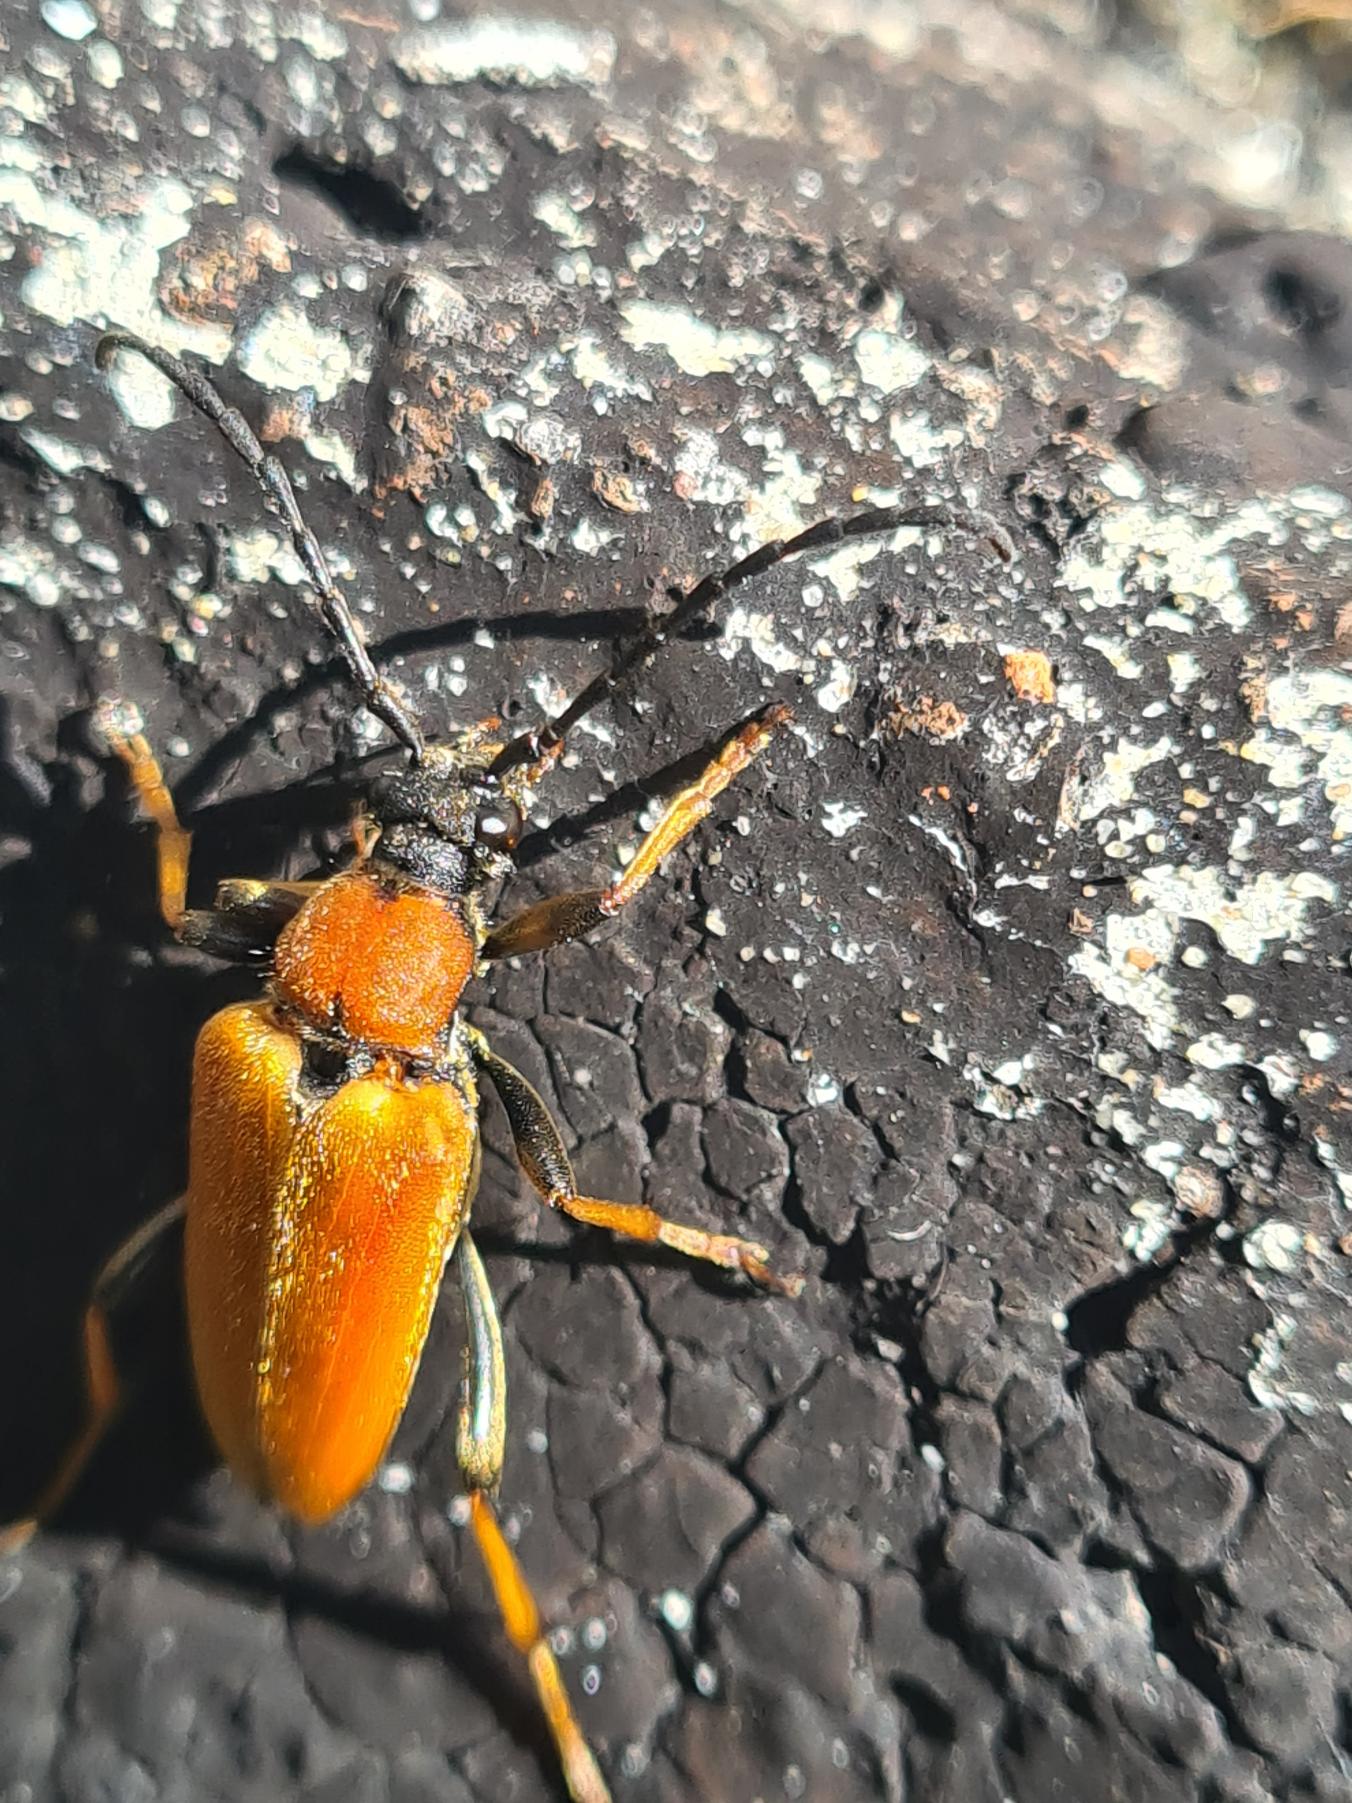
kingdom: Animalia
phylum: Arthropoda
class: Insecta
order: Coleoptera
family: Cerambycidae
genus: Stictoleptura
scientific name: Stictoleptura rubra
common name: Rød blomsterbuk
